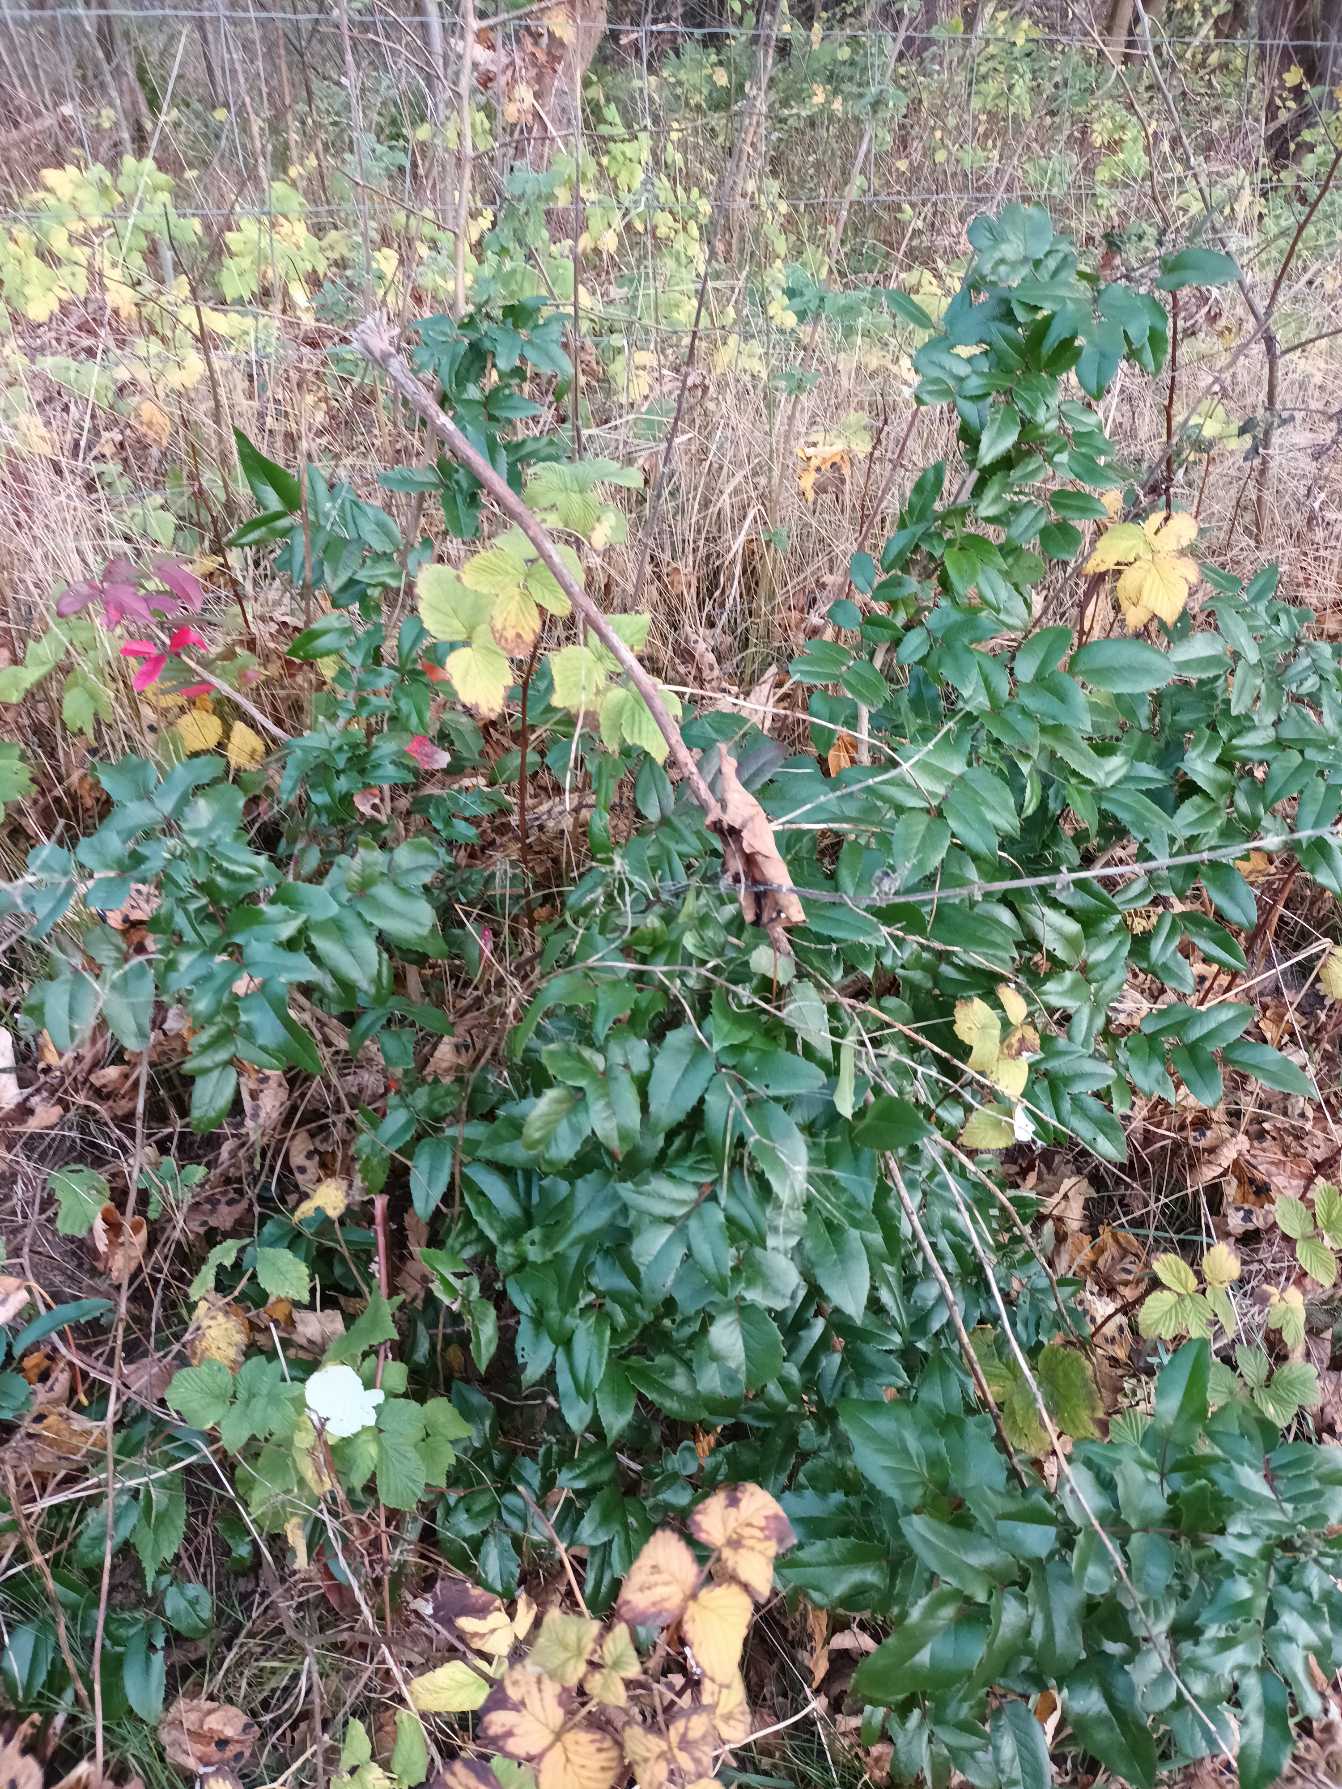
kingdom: Plantae
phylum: Tracheophyta
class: Magnoliopsida
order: Ranunculales
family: Berberidaceae
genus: Mahonia
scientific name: Mahonia aquifolium
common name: Almindelig mahonie
